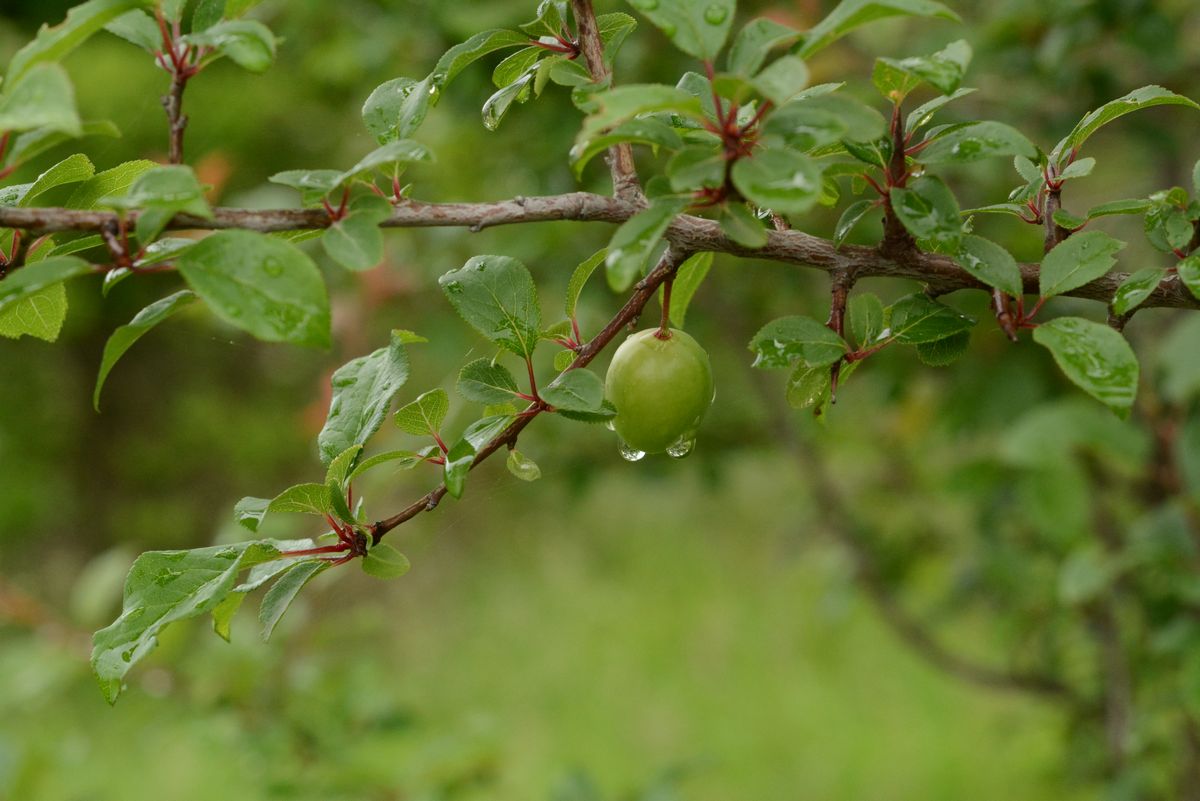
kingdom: Plantae
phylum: Tracheophyta
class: Magnoliopsida
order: Rosales
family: Rosaceae
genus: Prunus
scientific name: Prunus spinosa
